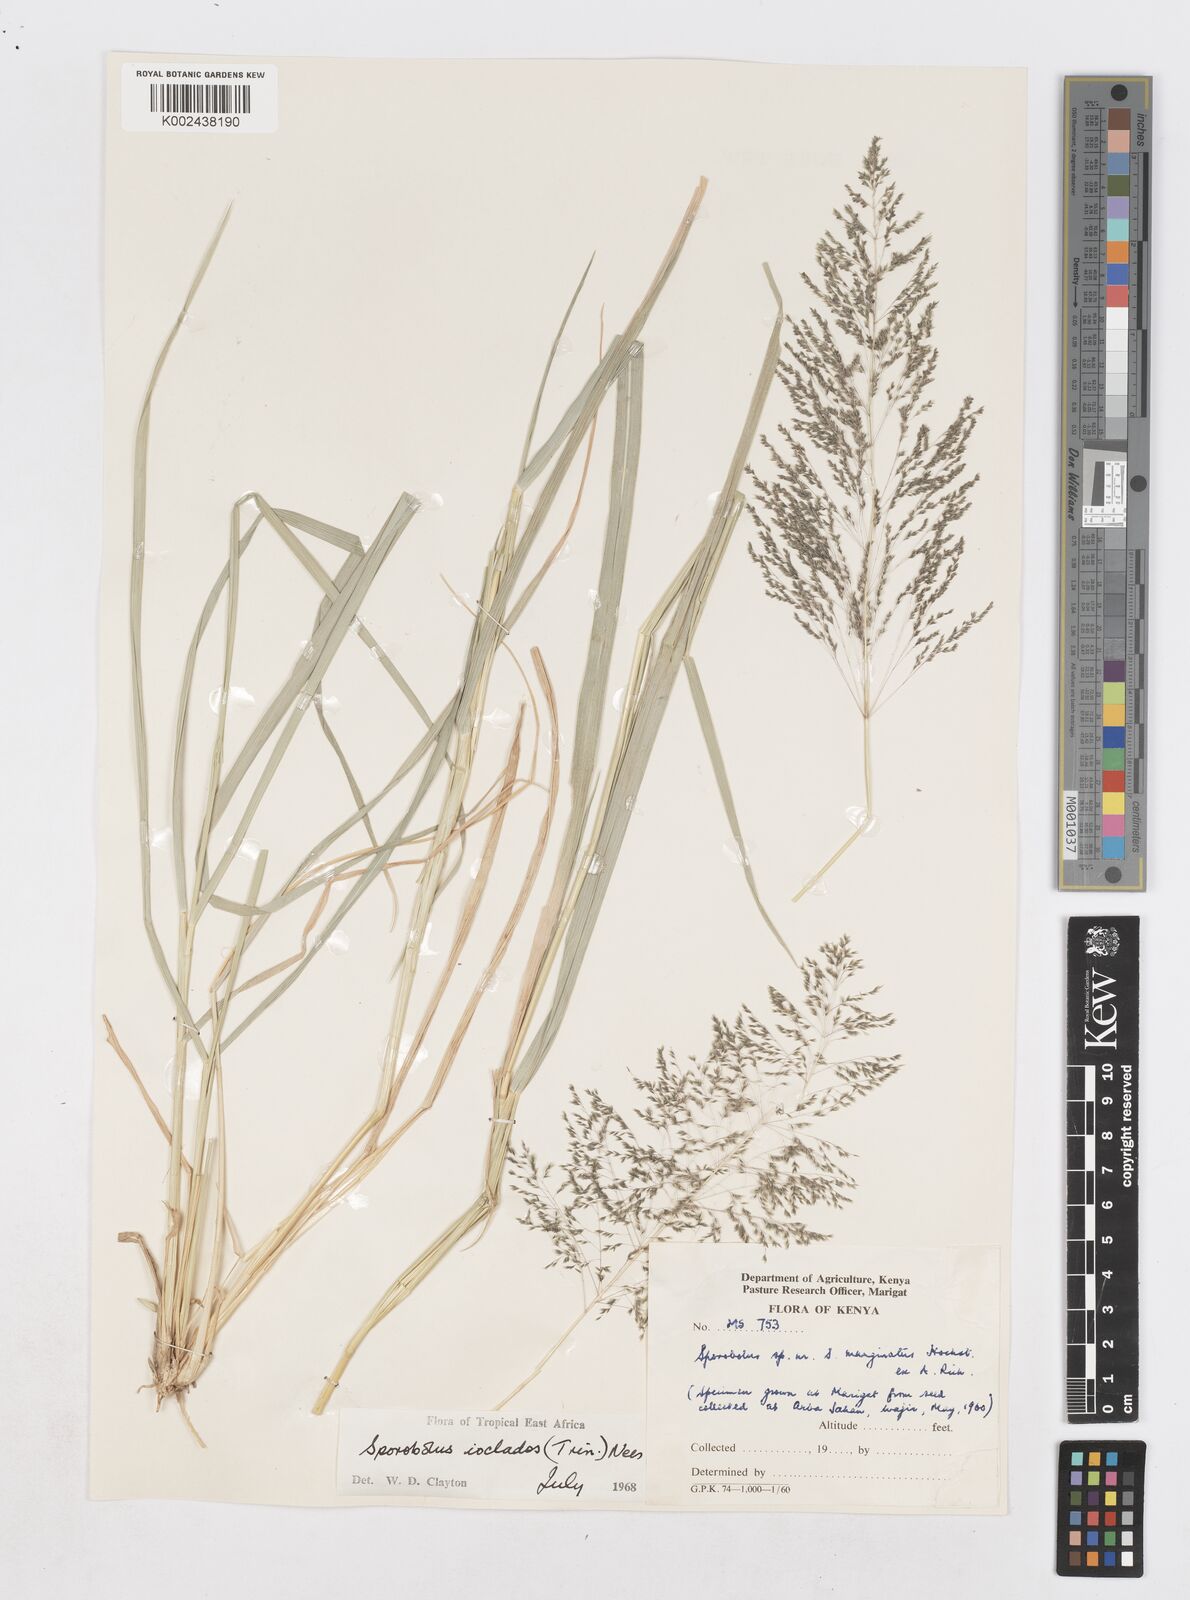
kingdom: Plantae
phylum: Tracheophyta
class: Liliopsida
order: Poales
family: Poaceae
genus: Sporobolus
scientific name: Sporobolus ioclados
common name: Pan dropseed
